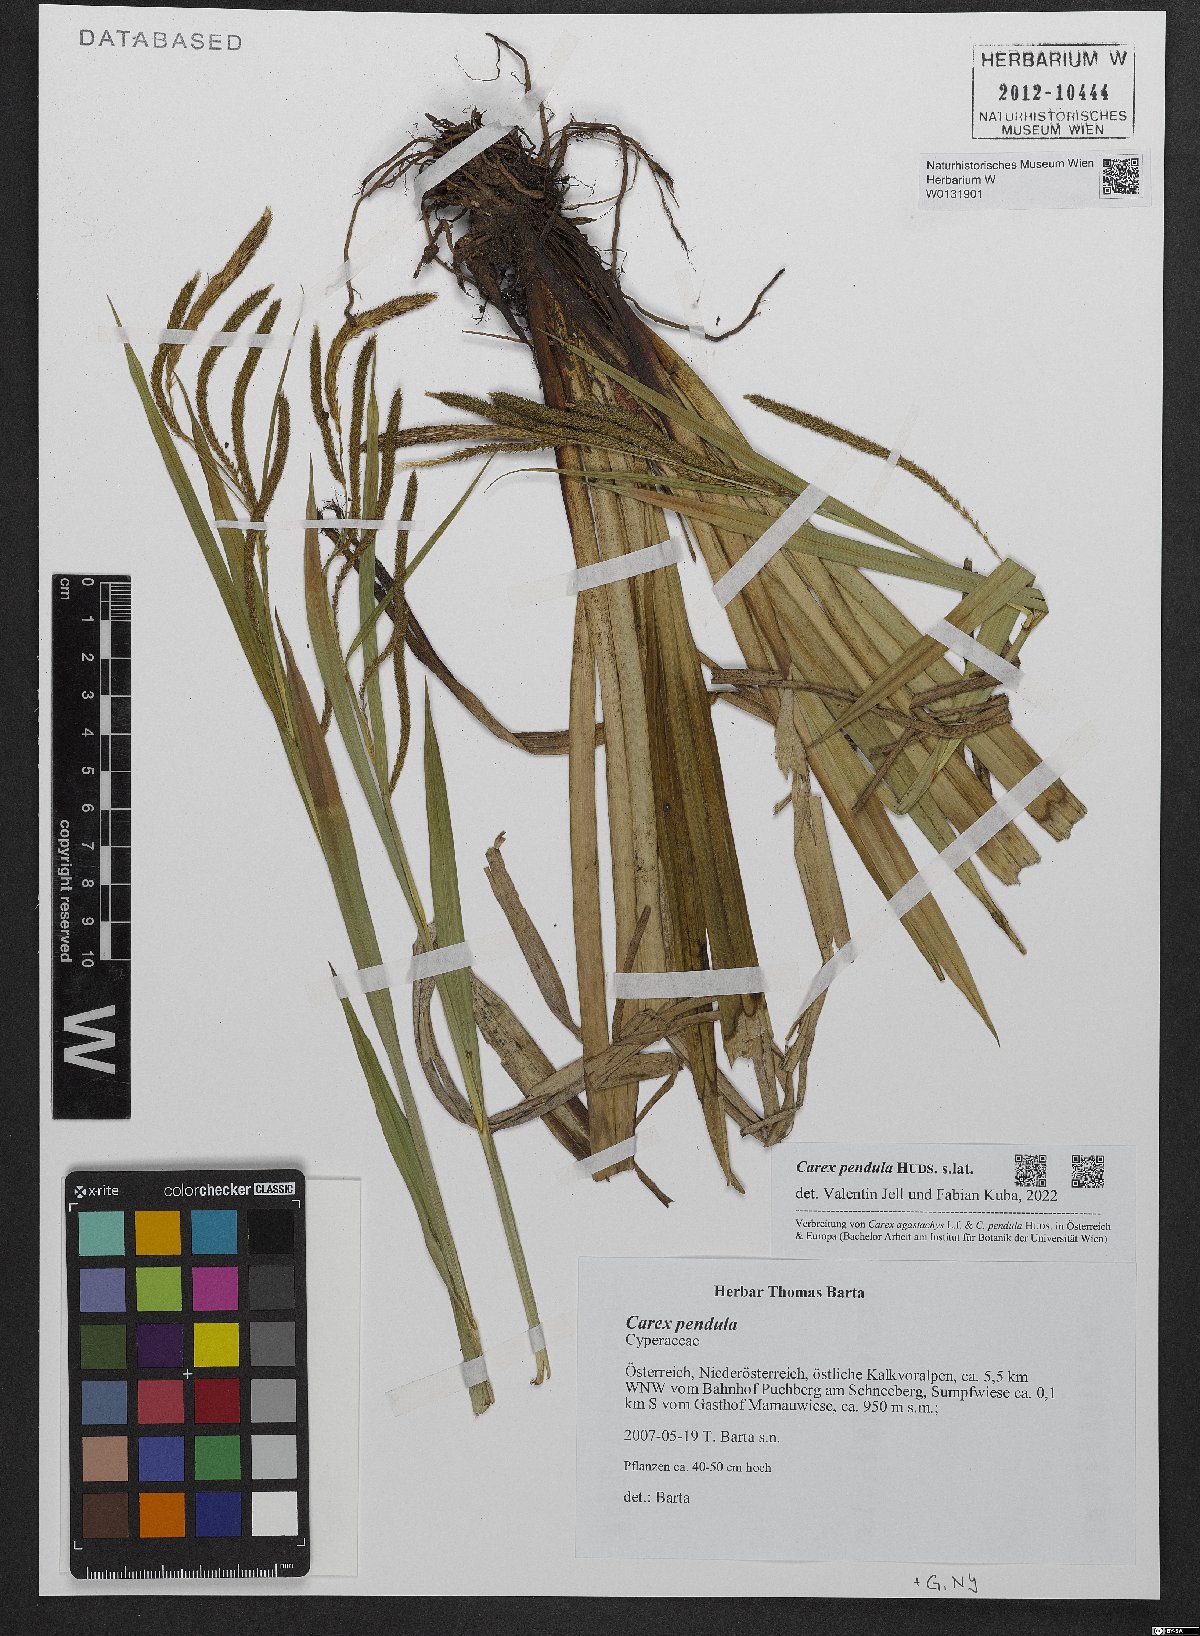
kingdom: Plantae
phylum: Tracheophyta
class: Liliopsida
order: Poales
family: Cyperaceae
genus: Carex
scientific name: Carex pendula
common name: Pendulous sedge
